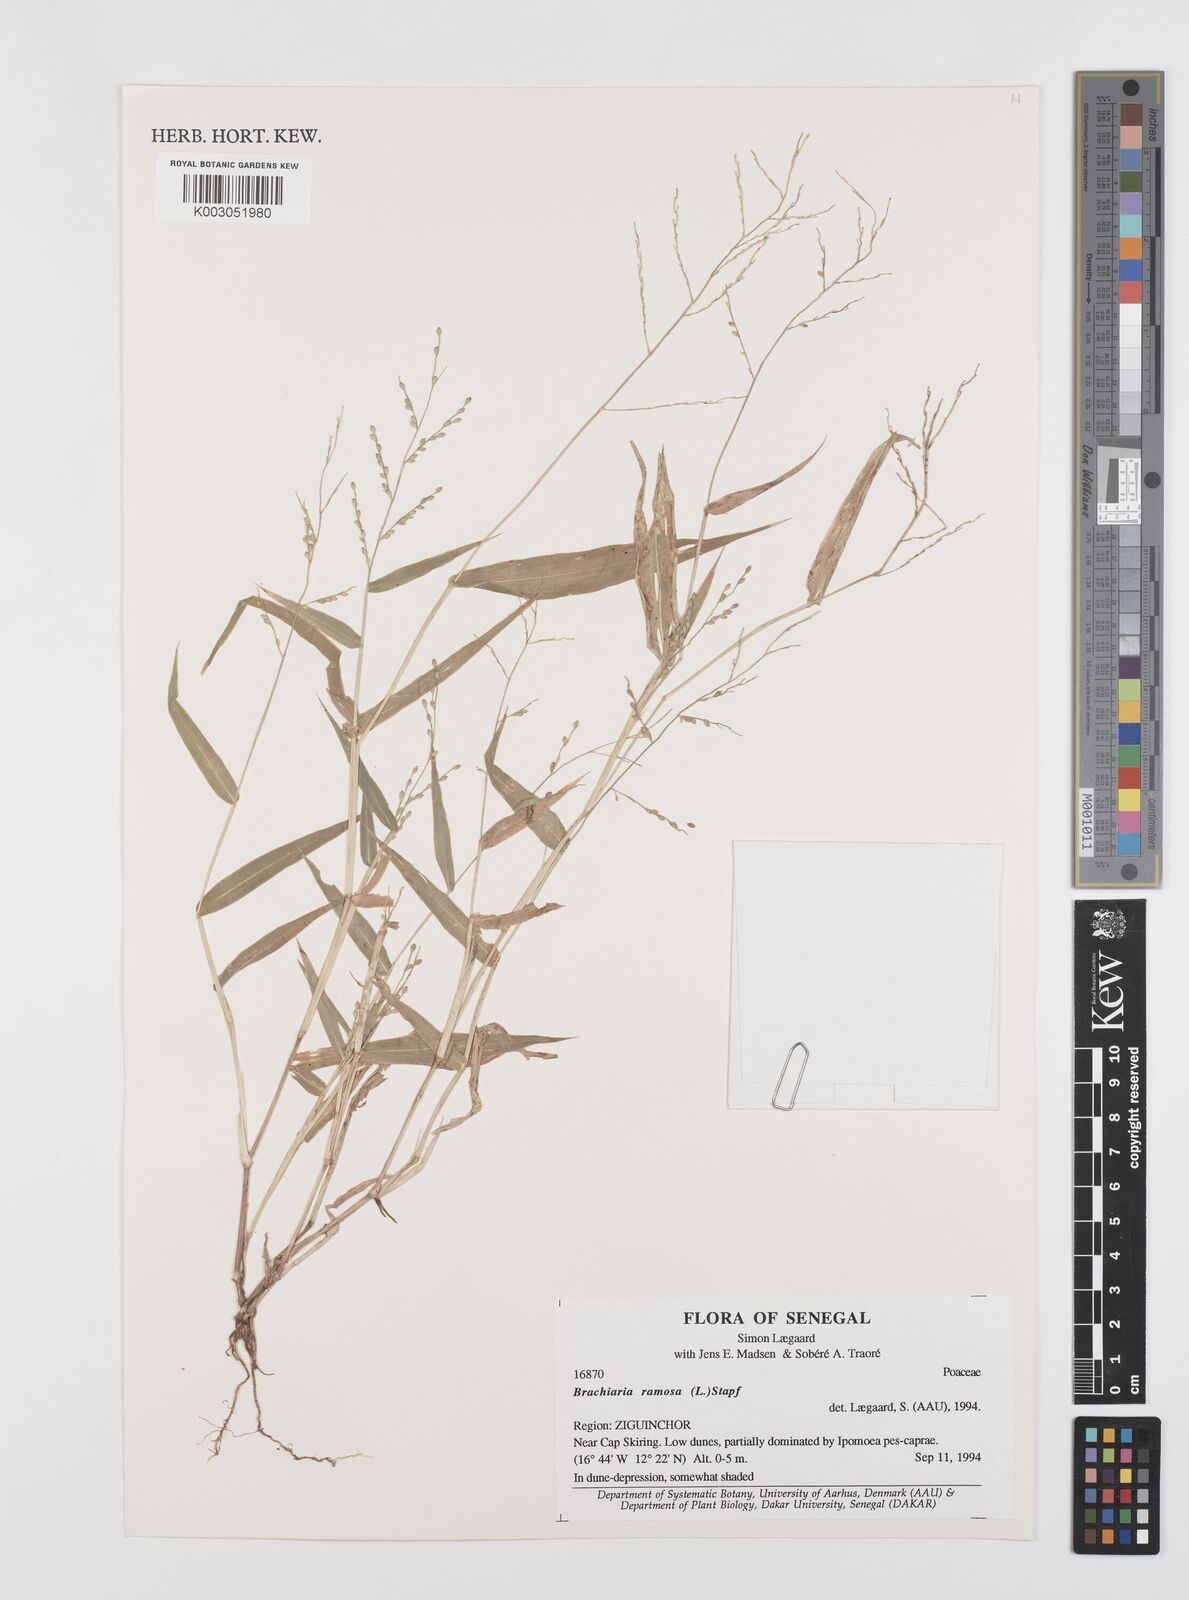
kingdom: Plantae
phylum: Tracheophyta
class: Liliopsida
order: Poales
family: Poaceae
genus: Urochloa
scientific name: Urochloa ramosa
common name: Browntop millet
